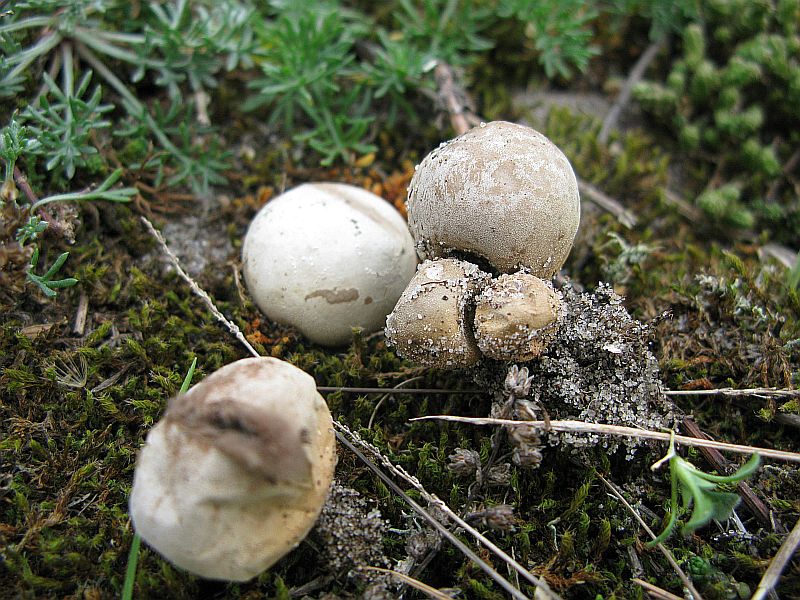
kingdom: Fungi
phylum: Basidiomycota
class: Agaricomycetes
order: Agaricales
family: Lycoperdaceae
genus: Bovista
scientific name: Bovista furfuracea
